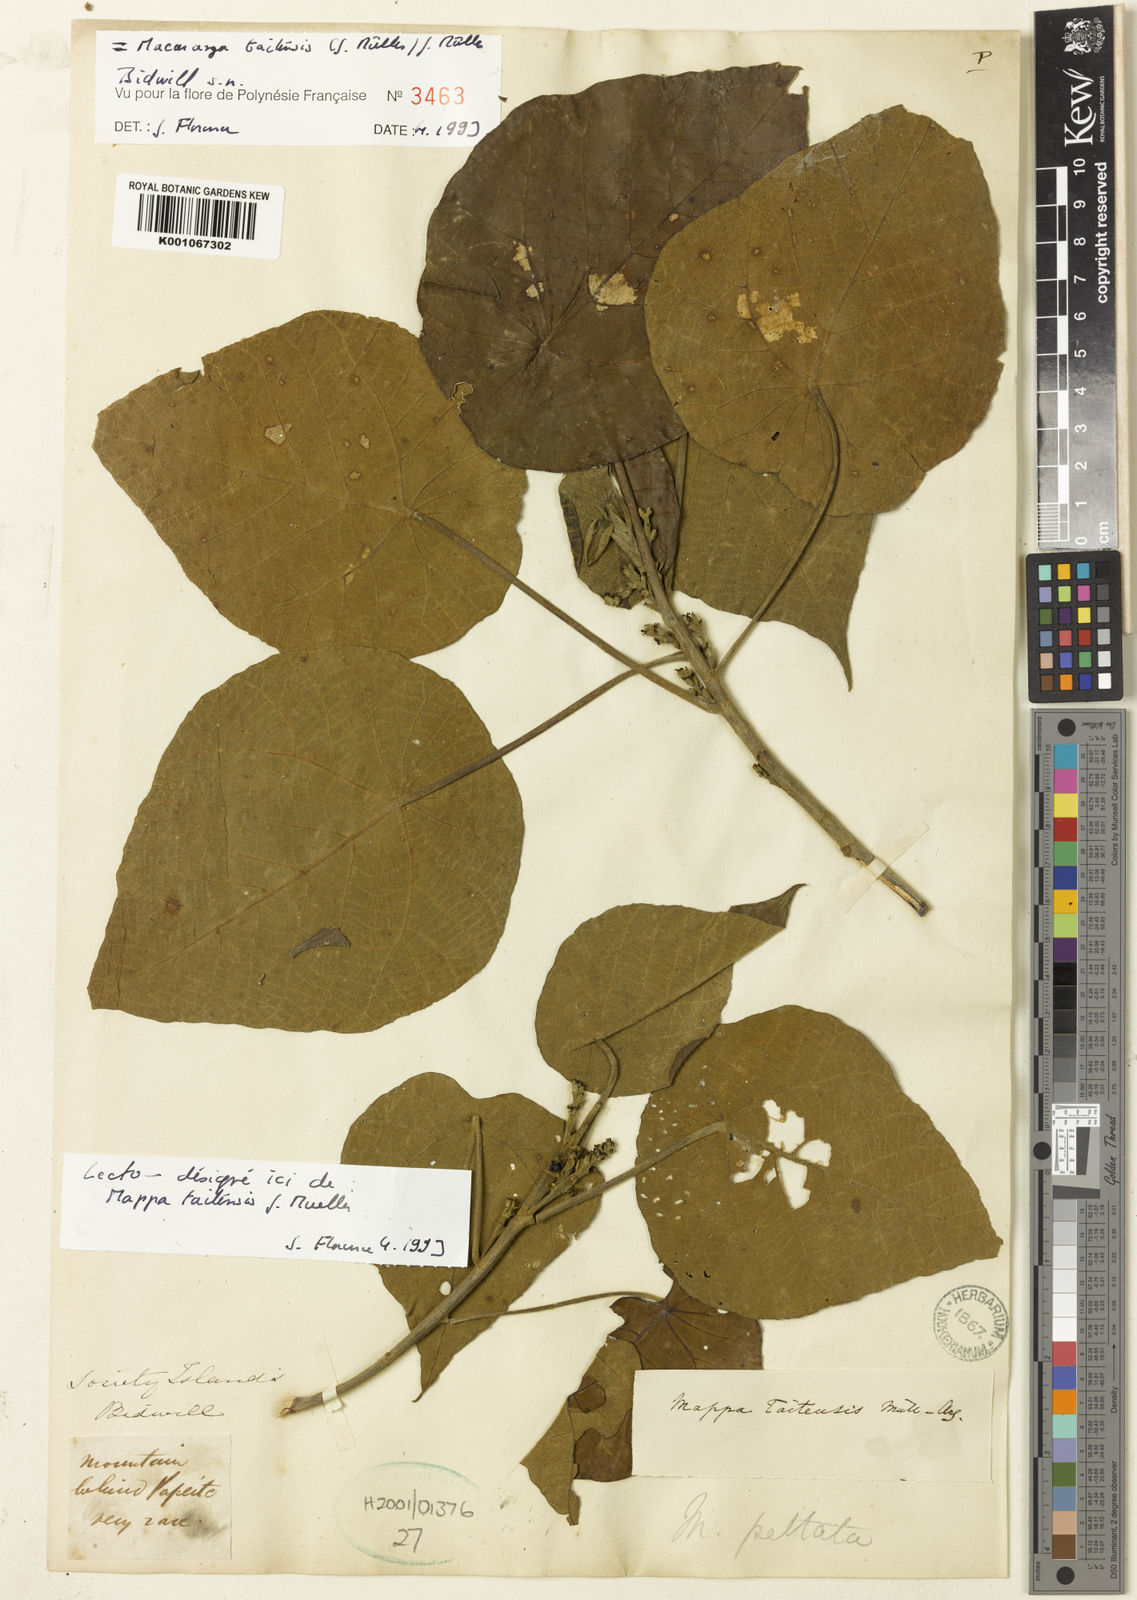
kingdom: Plantae
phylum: Tracheophyta
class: Magnoliopsida
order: Malpighiales
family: Euphorbiaceae
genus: Macaranga
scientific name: Macaranga
